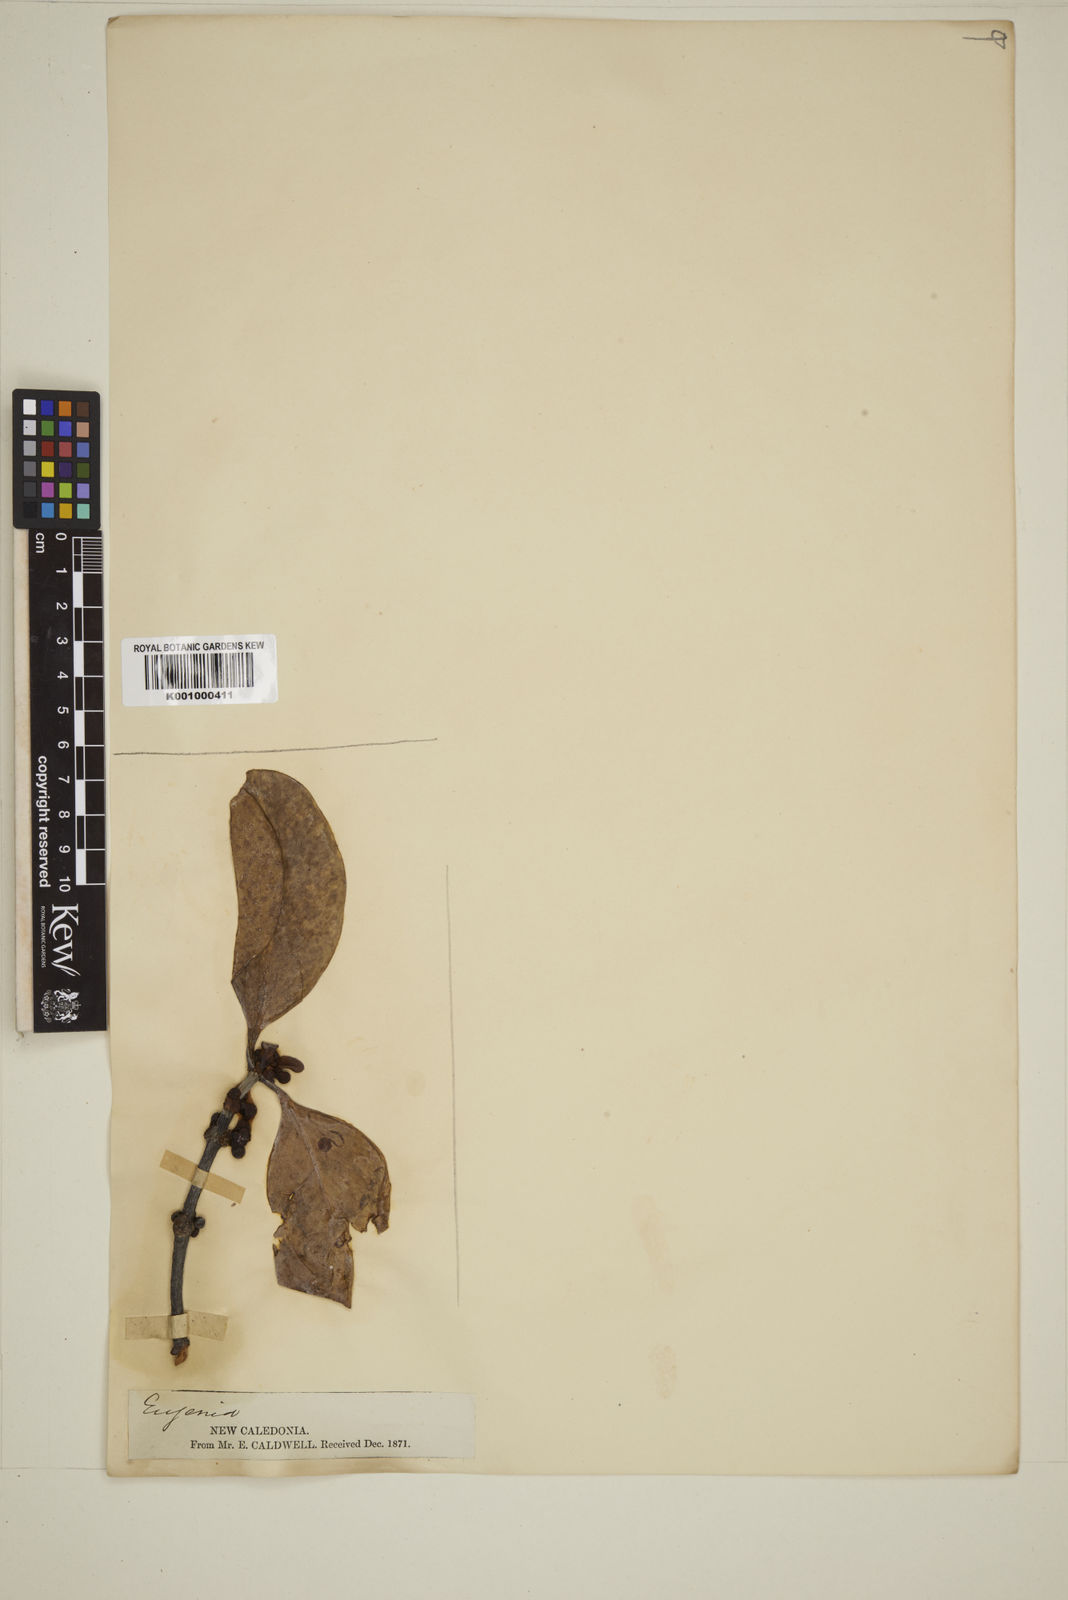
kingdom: Plantae
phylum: Tracheophyta
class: Magnoliopsida
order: Myrtales
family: Myrtaceae
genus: Eugenia
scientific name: Eugenia
